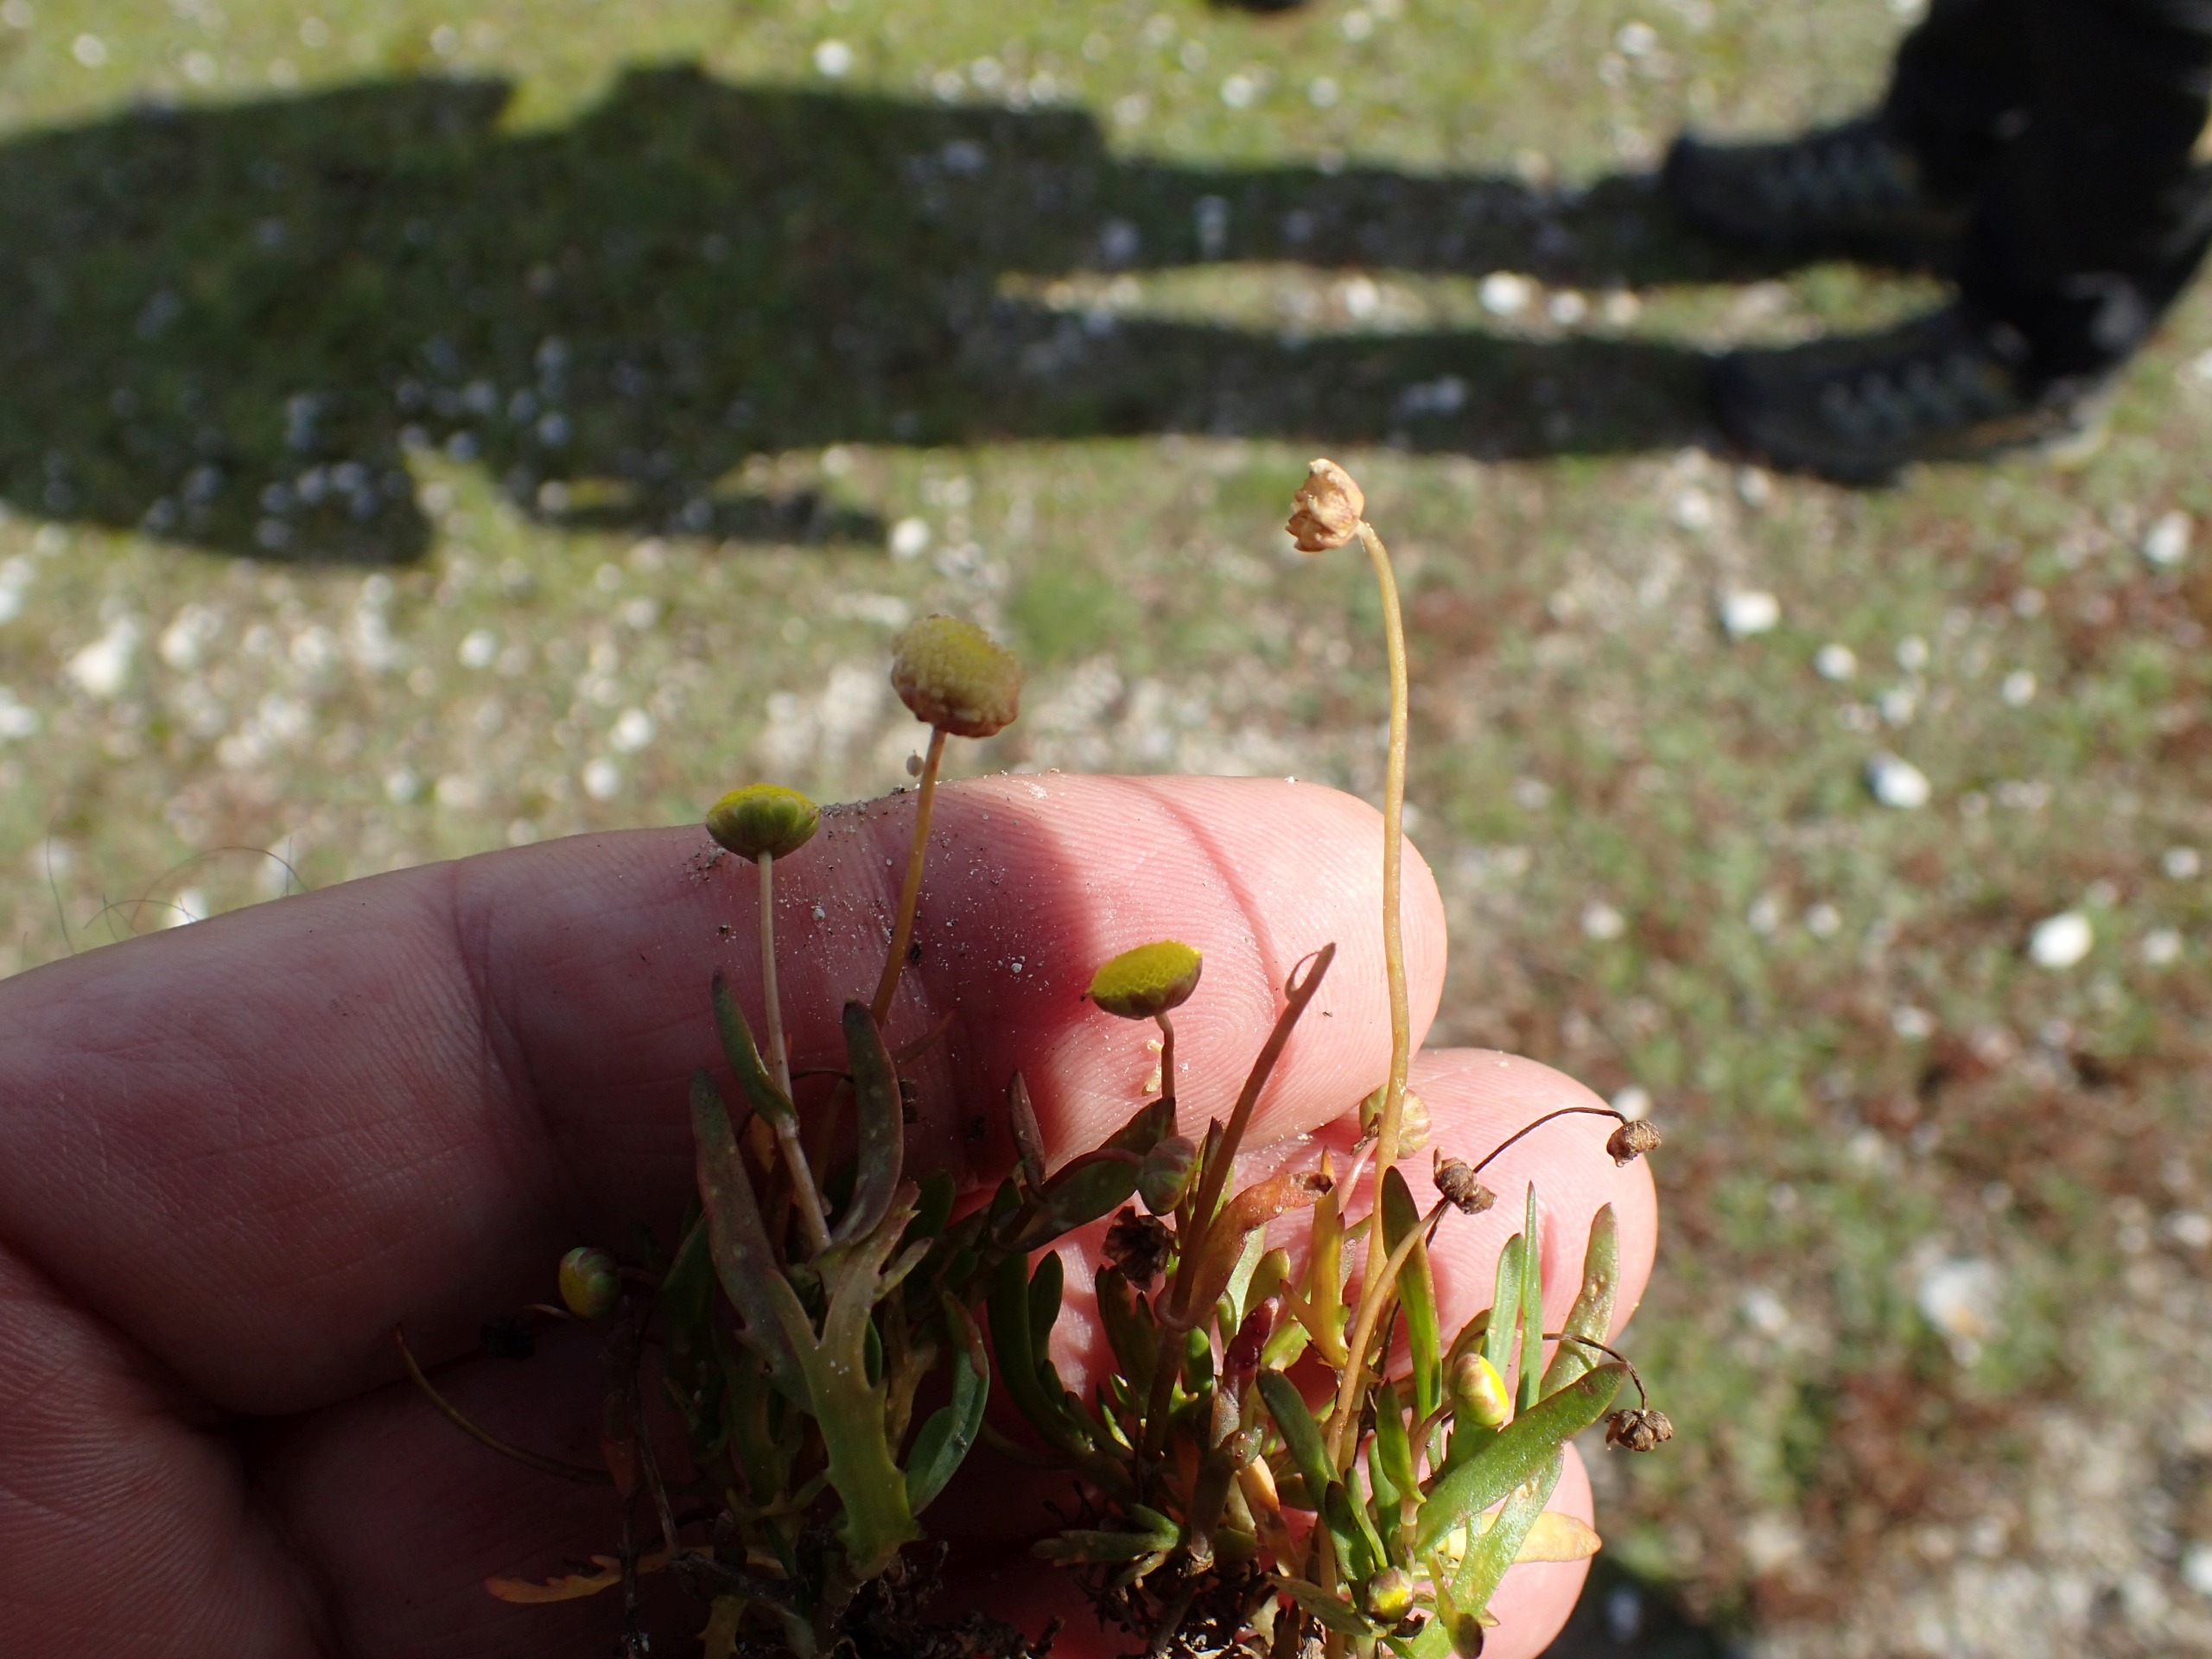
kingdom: Plantae
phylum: Tracheophyta
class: Magnoliopsida
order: Asterales
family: Asteraceae
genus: Cotula
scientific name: Cotula coronopifolia
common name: Firkløft
